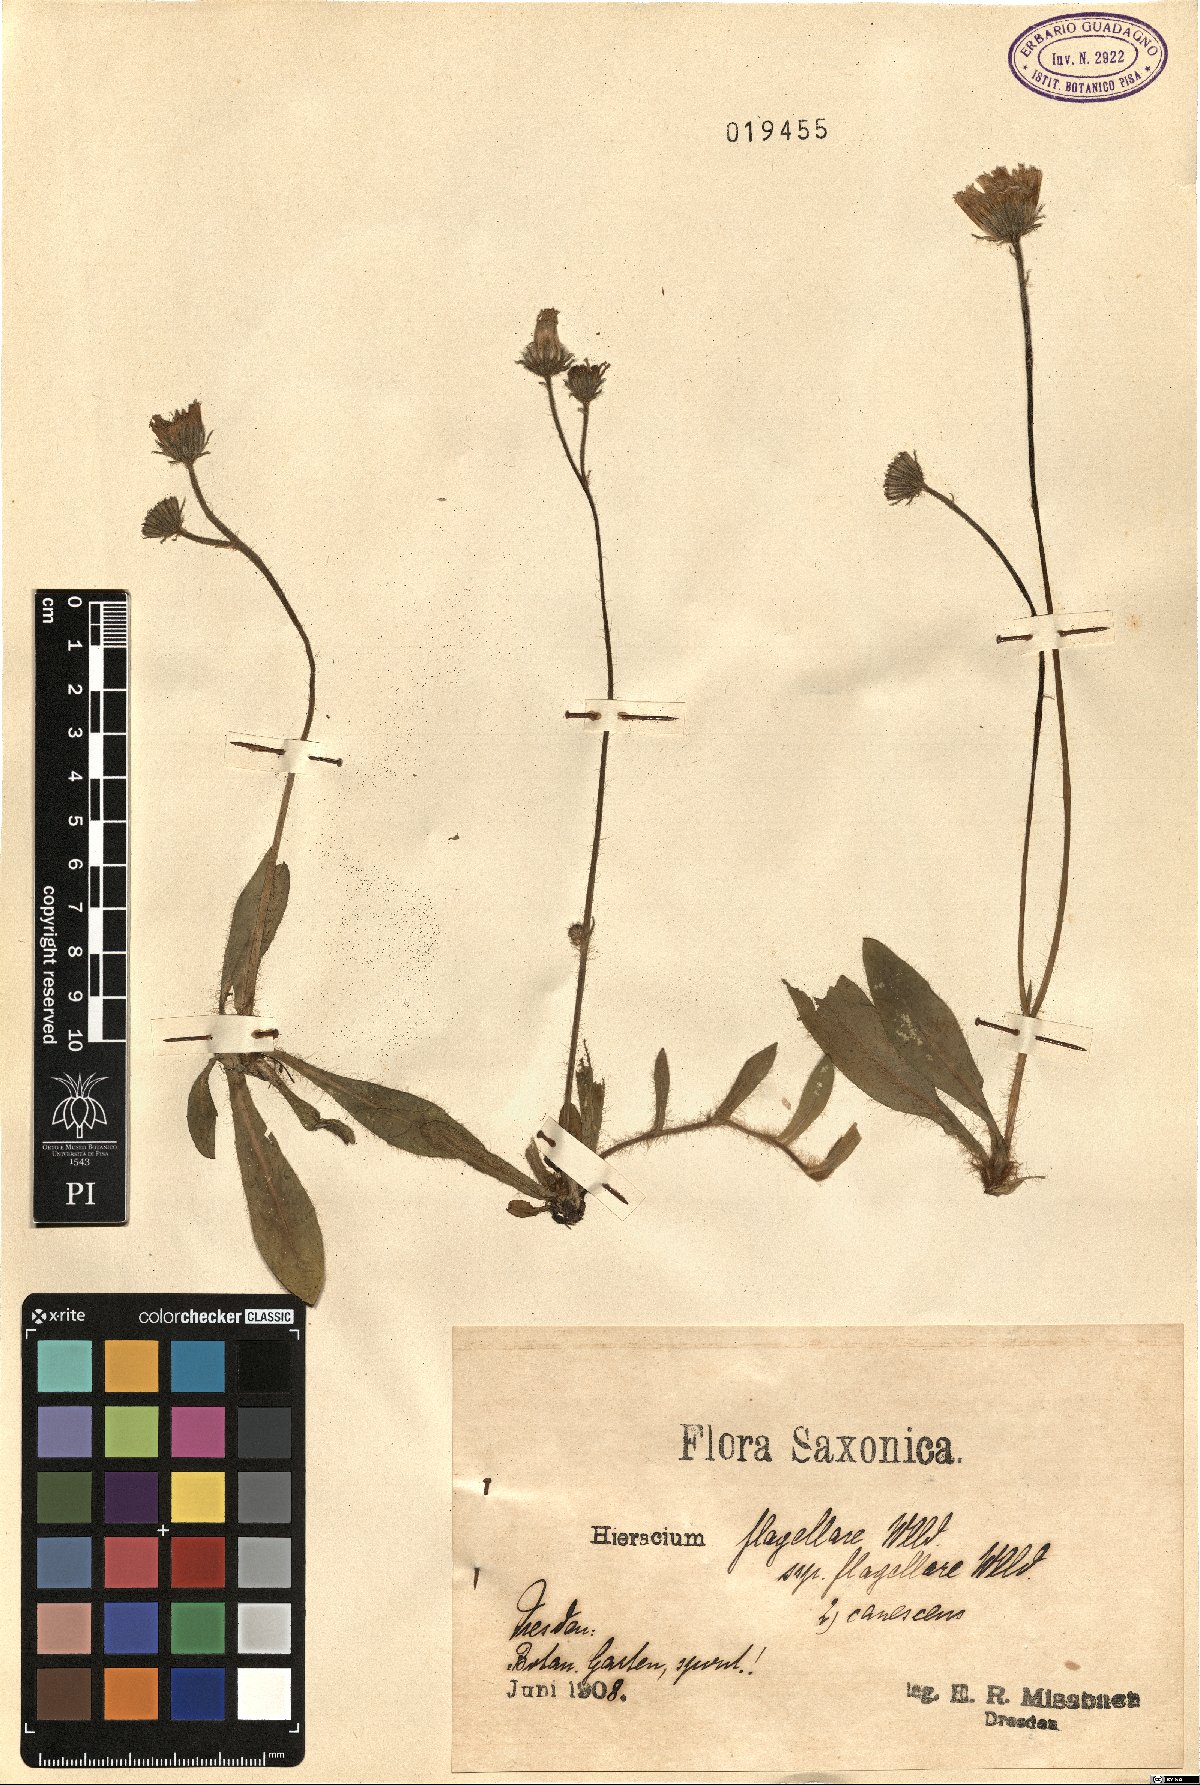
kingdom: Plantae
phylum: Tracheophyta
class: Magnoliopsida
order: Asterales
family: Asteraceae
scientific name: Asteraceae
